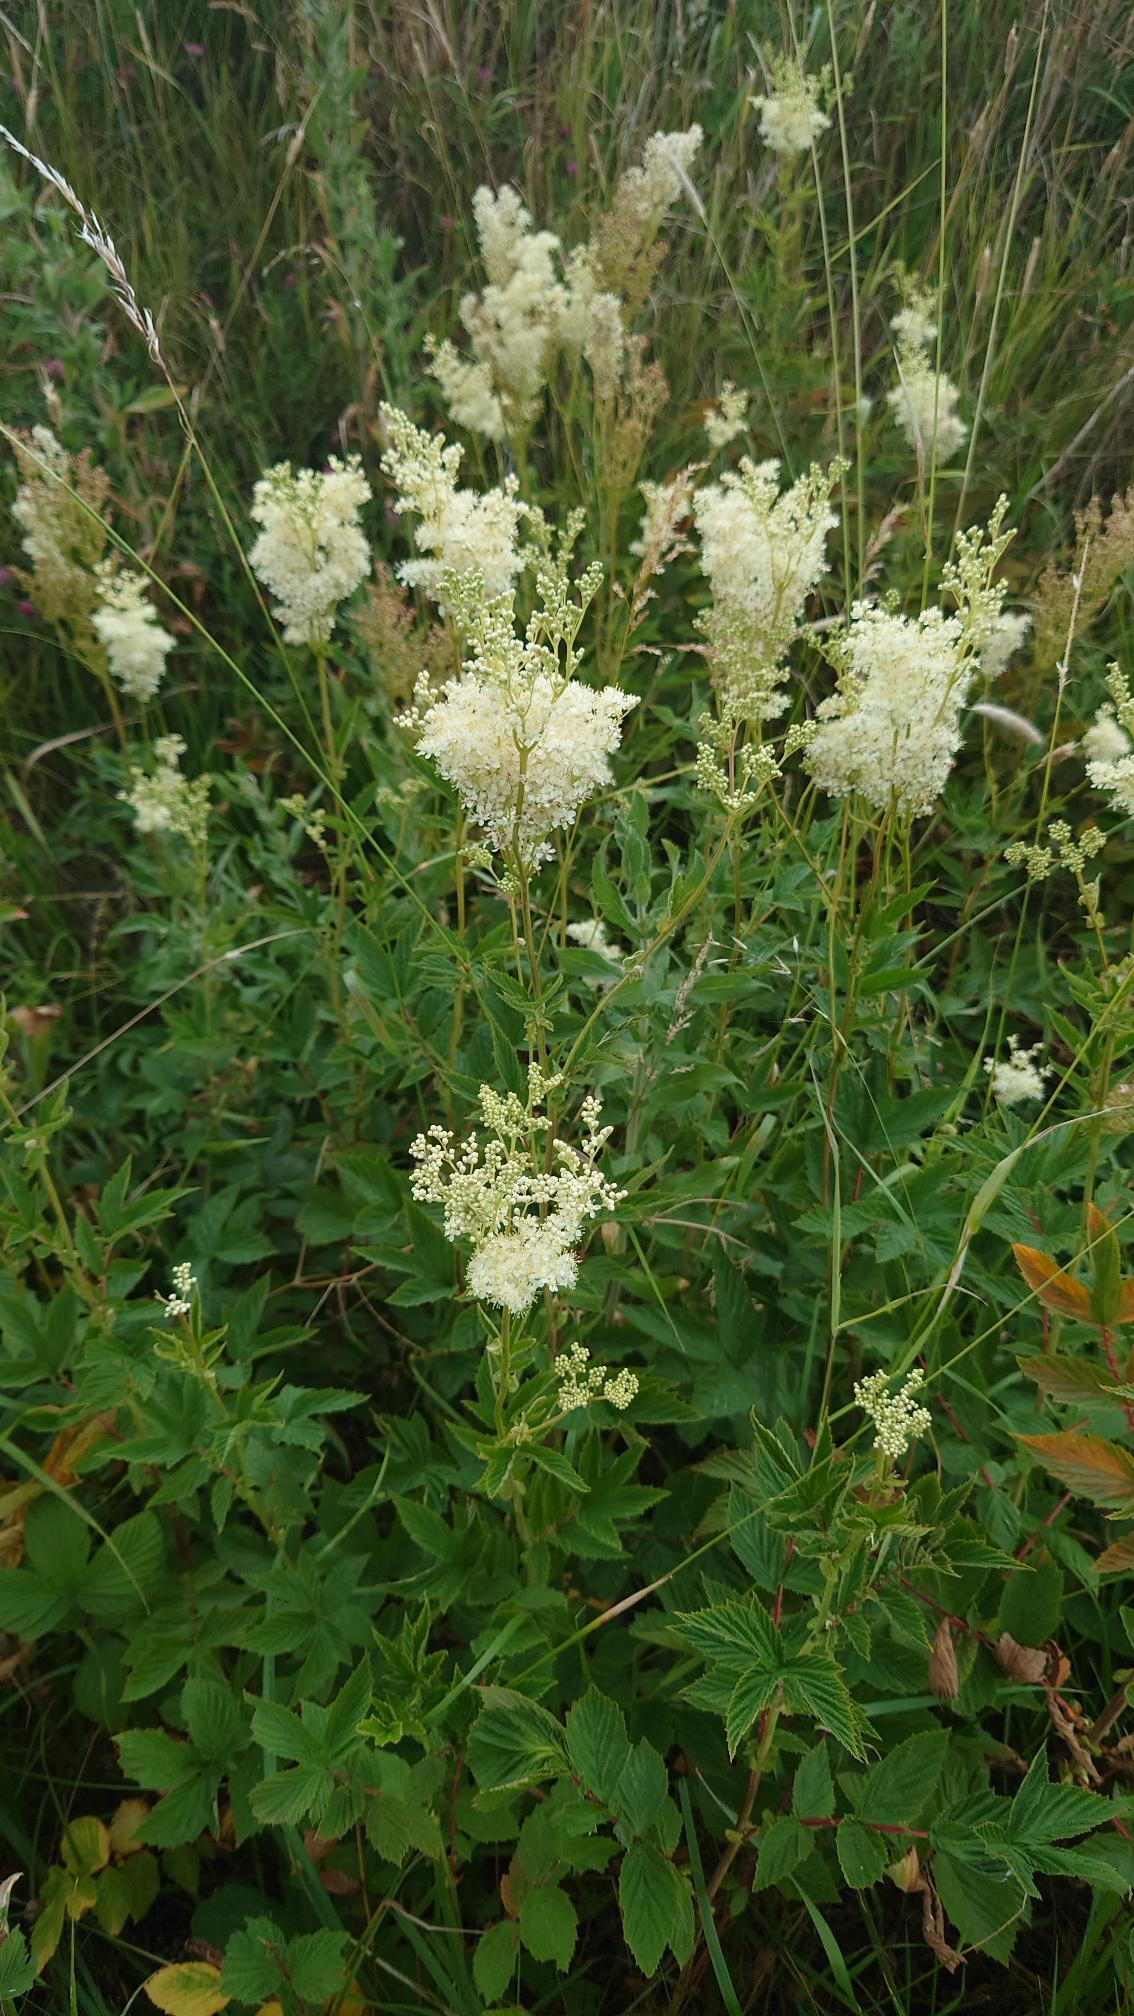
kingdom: Plantae
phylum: Tracheophyta
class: Magnoliopsida
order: Rosales
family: Rosaceae
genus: Filipendula
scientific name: Filipendula ulmaria
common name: Almindelig mjødurt
